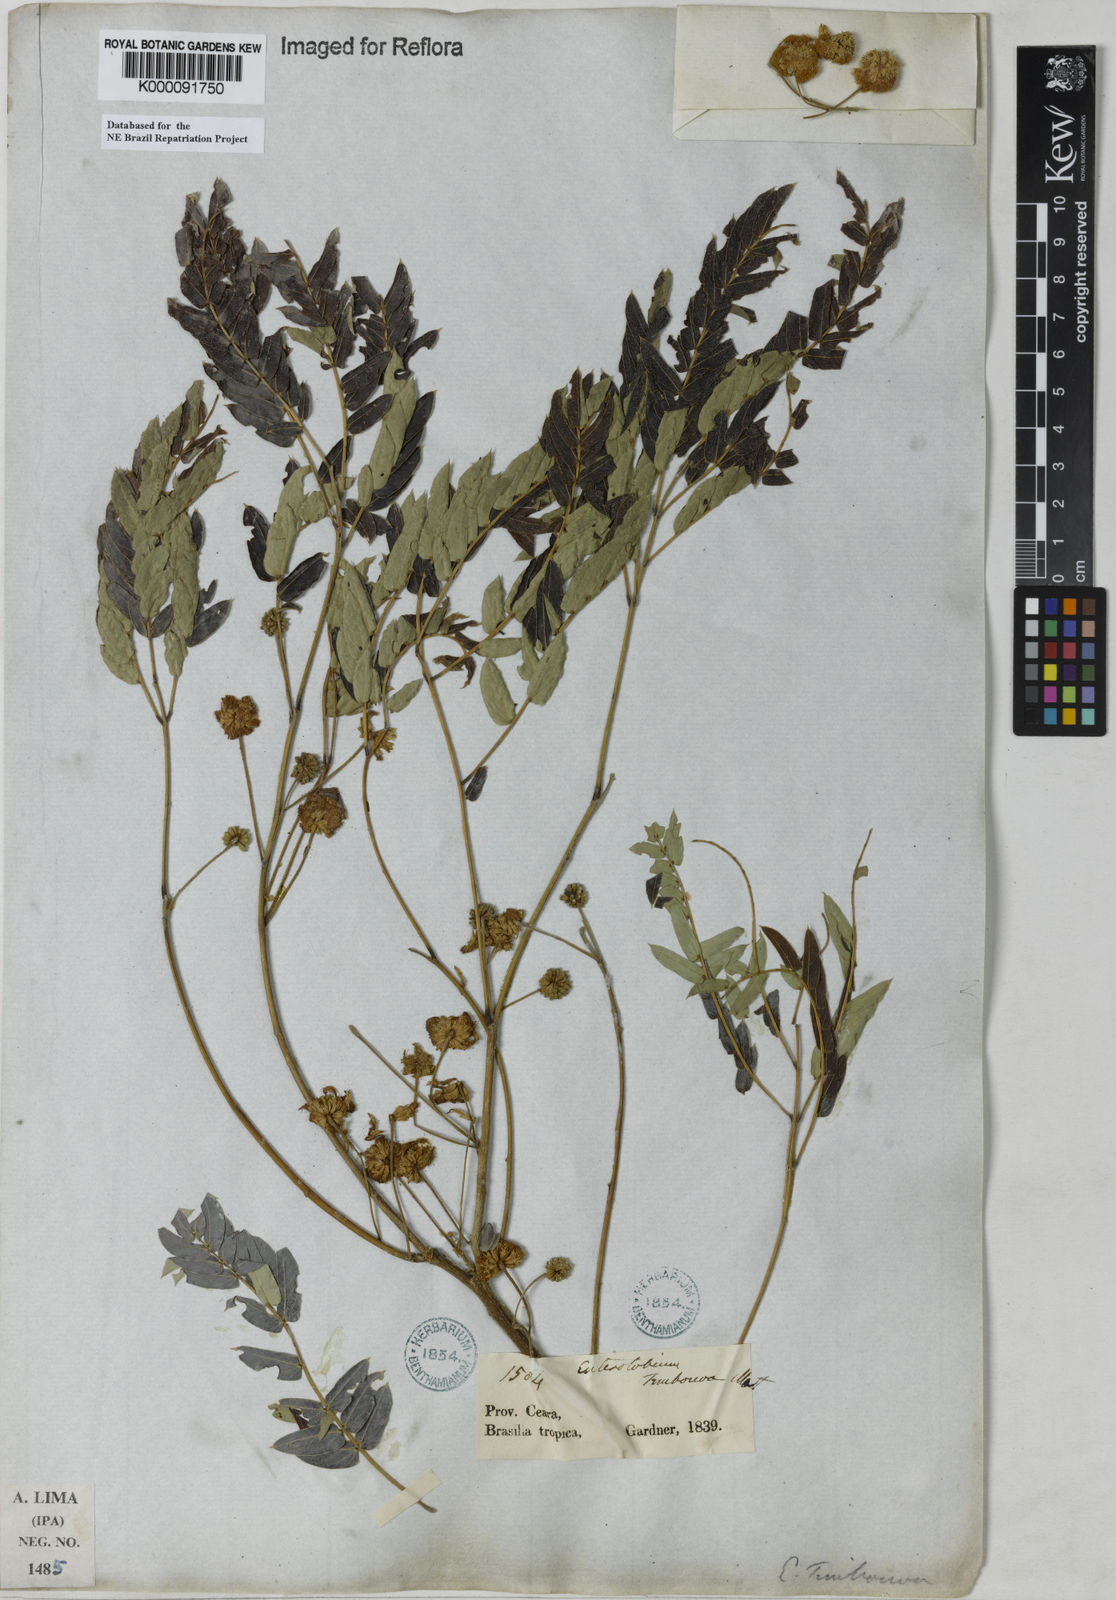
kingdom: Plantae
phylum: Tracheophyta
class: Magnoliopsida
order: Fabales
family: Fabaceae
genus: Enterolobium
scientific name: Enterolobium timbouva
